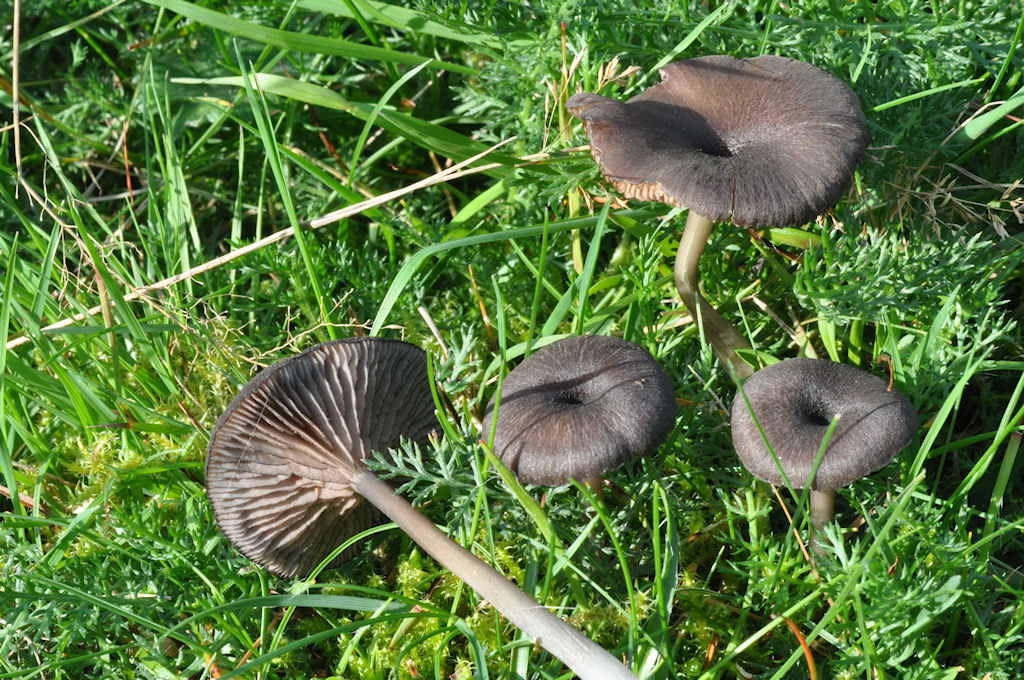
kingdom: Fungi
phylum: Basidiomycota
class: Agaricomycetes
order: Agaricales
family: Entolomataceae
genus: Entoloma
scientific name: Entoloma
